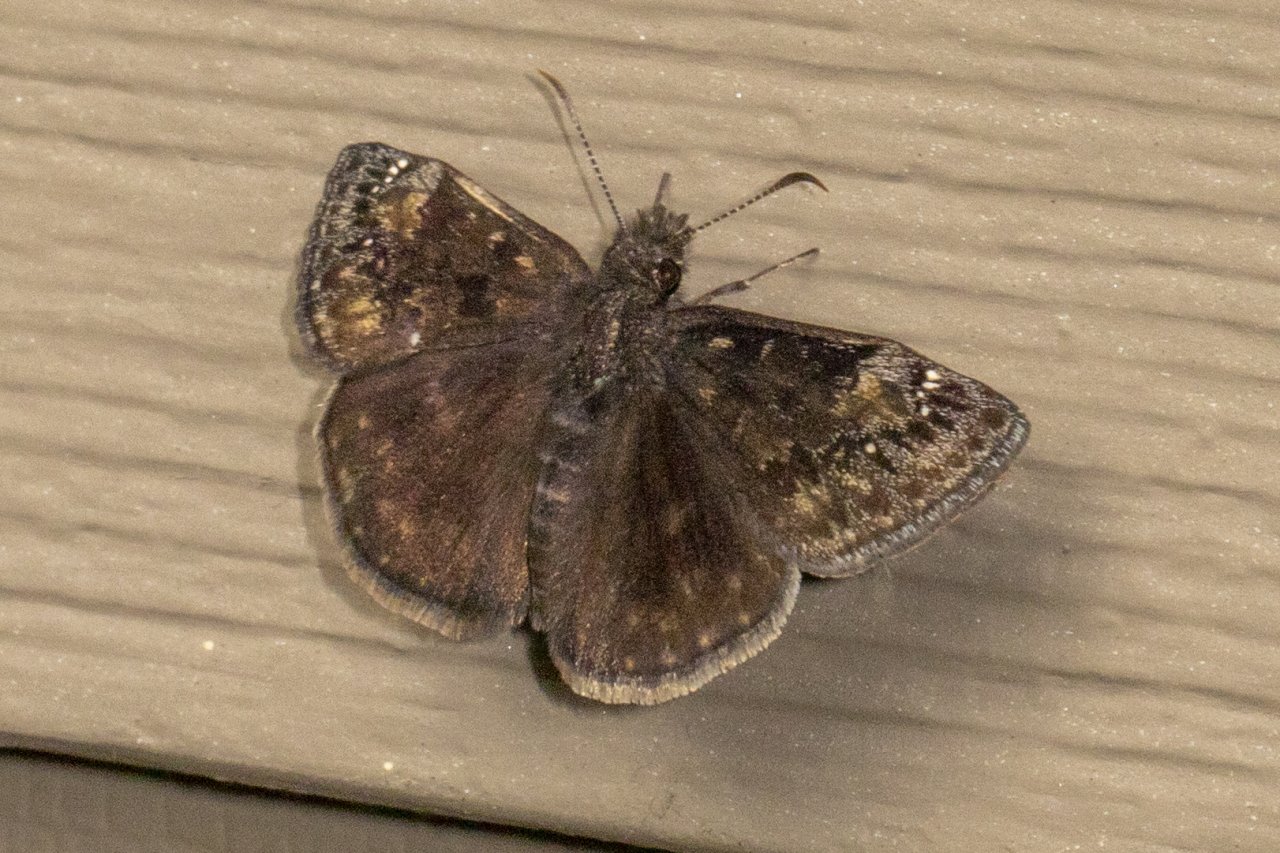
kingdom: Animalia
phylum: Arthropoda
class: Insecta
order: Lepidoptera
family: Hesperiidae
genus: Gesta
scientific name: Gesta
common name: Wild Indigo Duskywing
